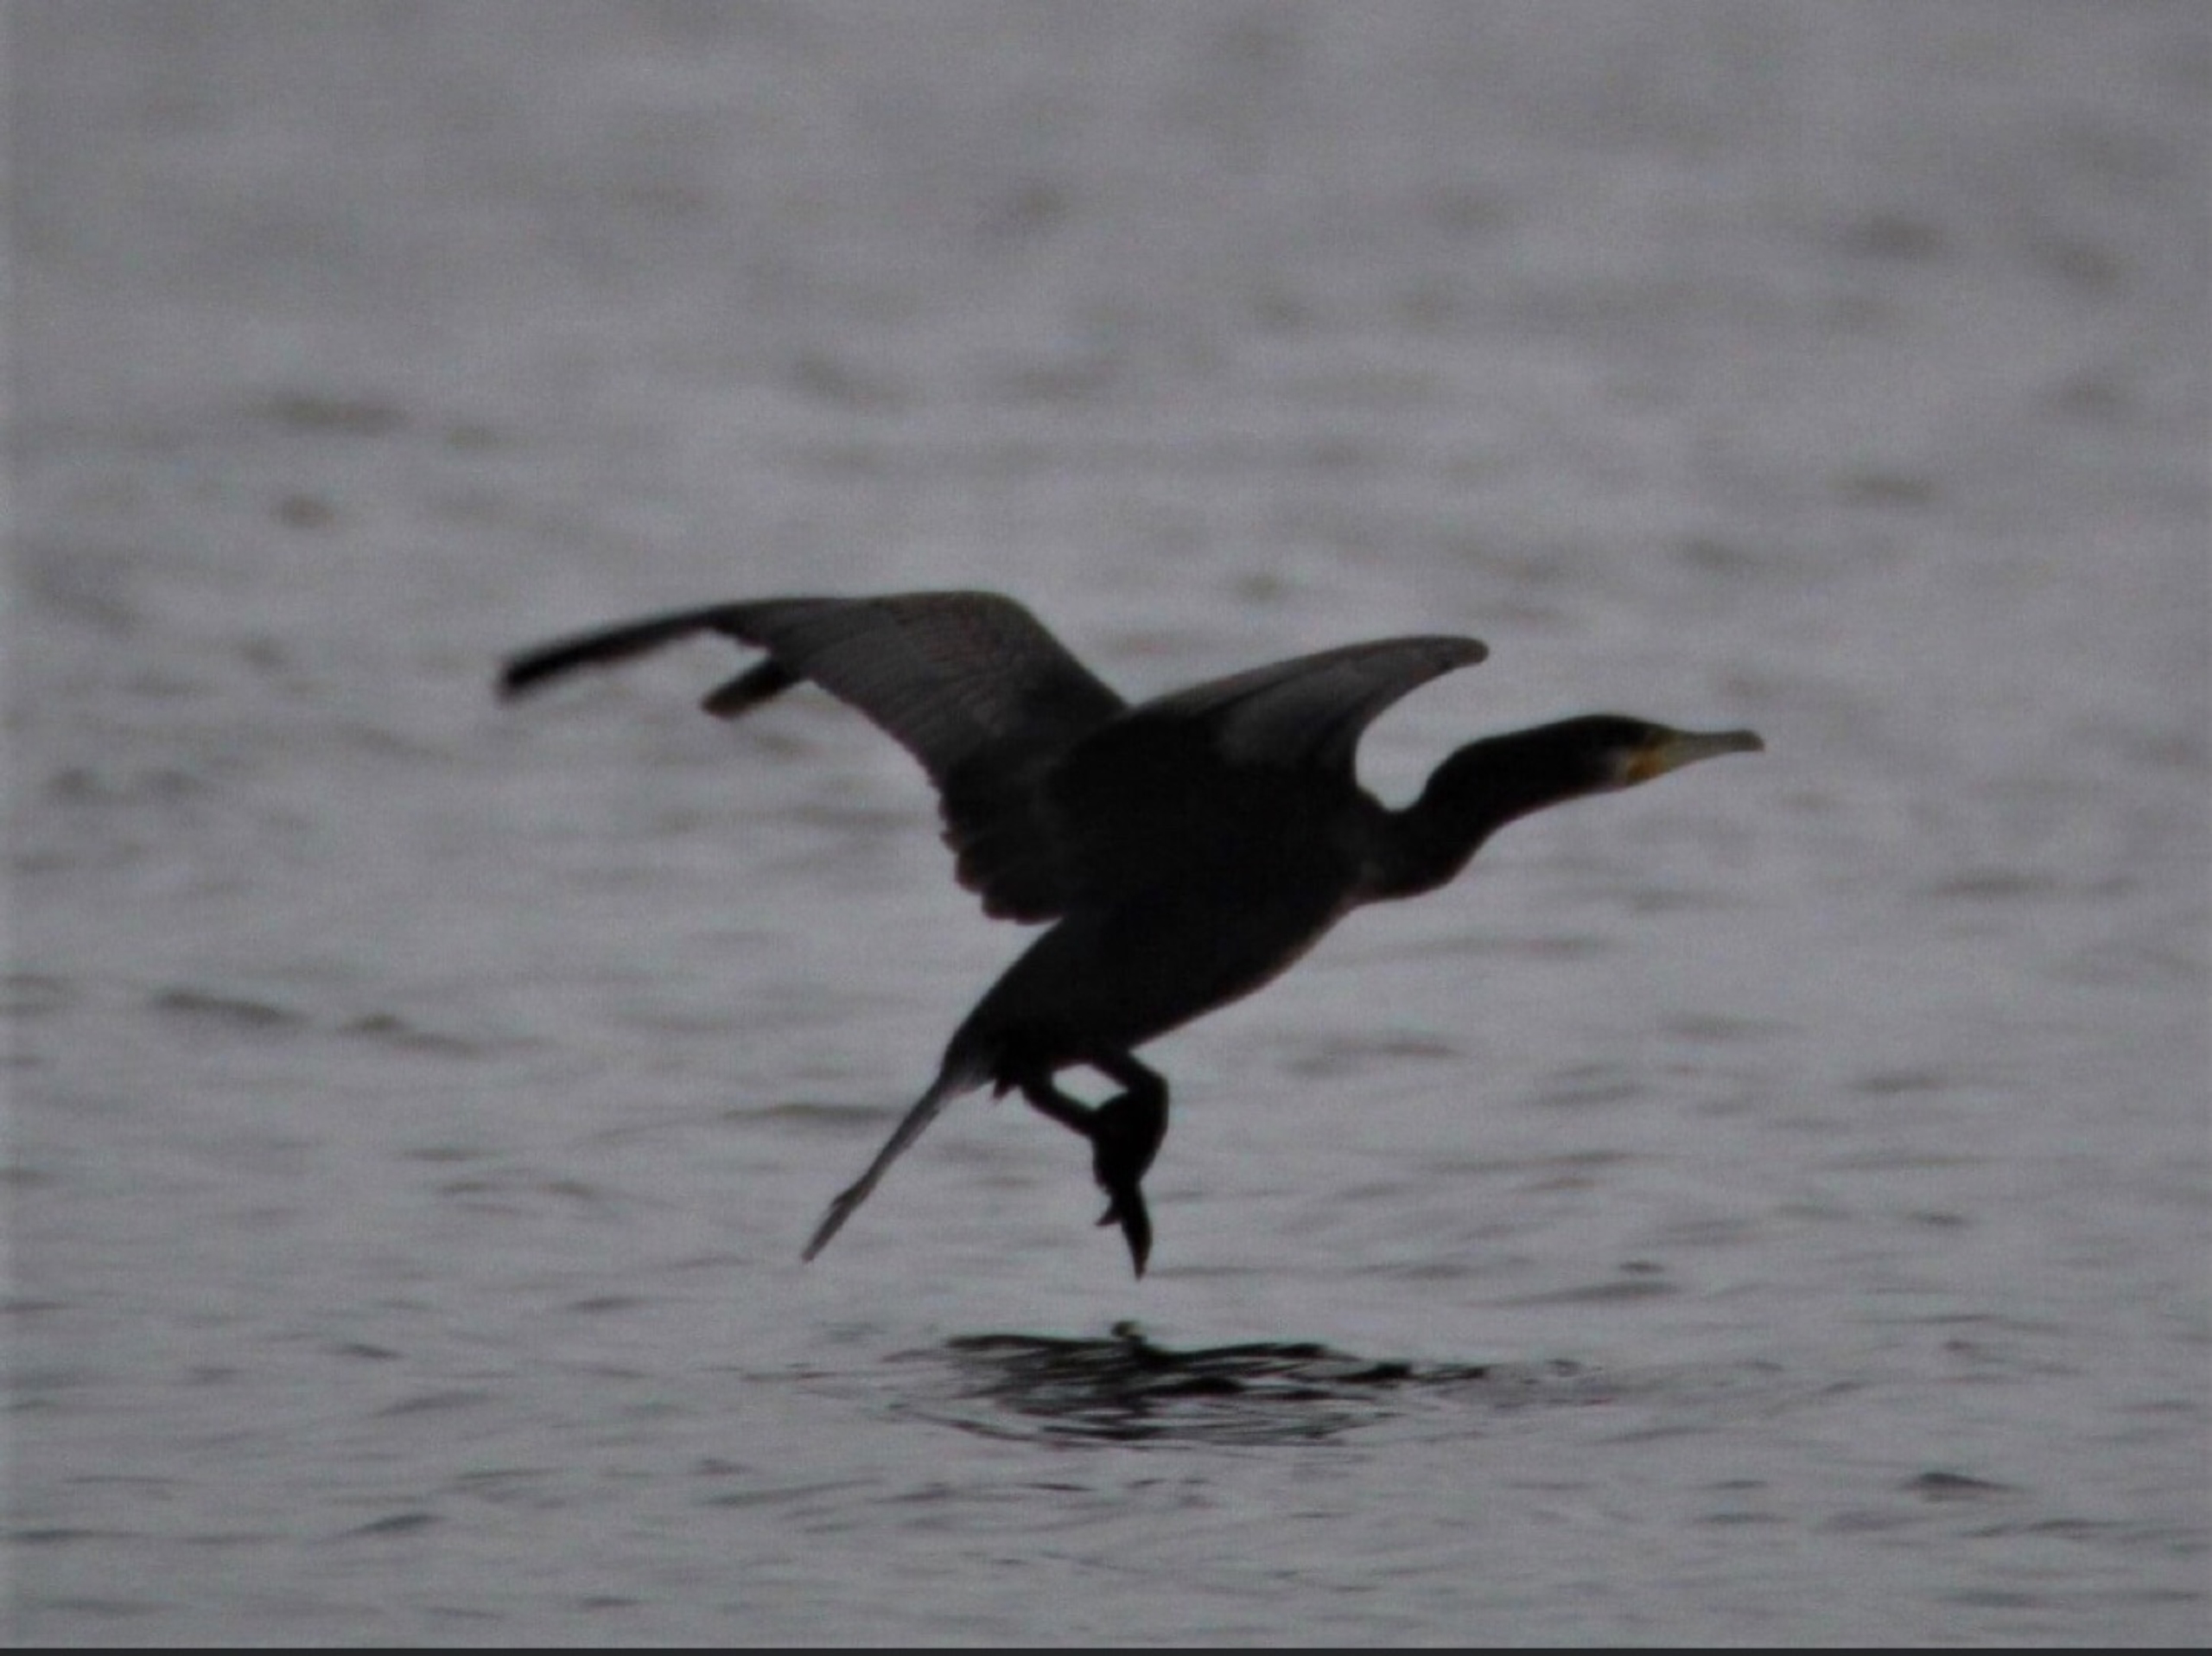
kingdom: Animalia
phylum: Chordata
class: Aves
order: Suliformes
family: Phalacrocoracidae
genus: Phalacrocorax
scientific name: Phalacrocorax carbo
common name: Skarv
